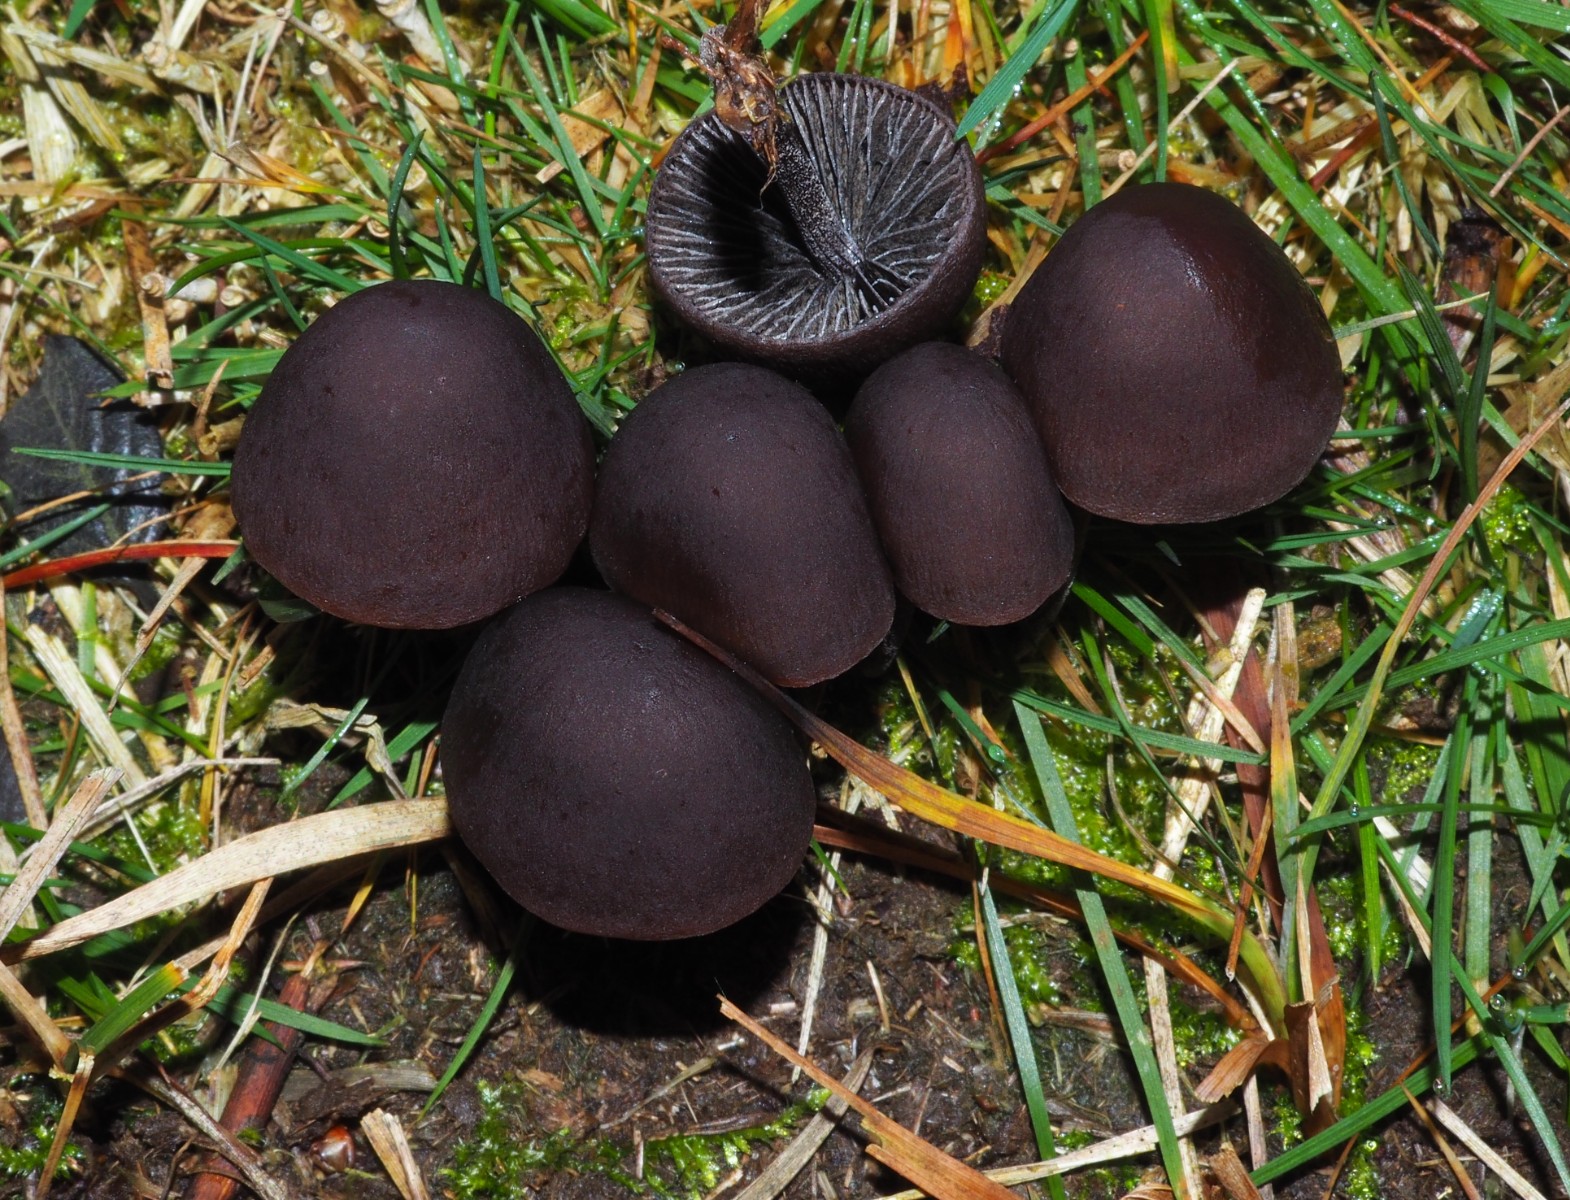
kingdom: Fungi
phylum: Basidiomycota
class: Agaricomycetes
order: Agaricales
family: Bolbitiaceae
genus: Panaeolus
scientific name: Panaeolus acuminatus
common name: høj glanshat
